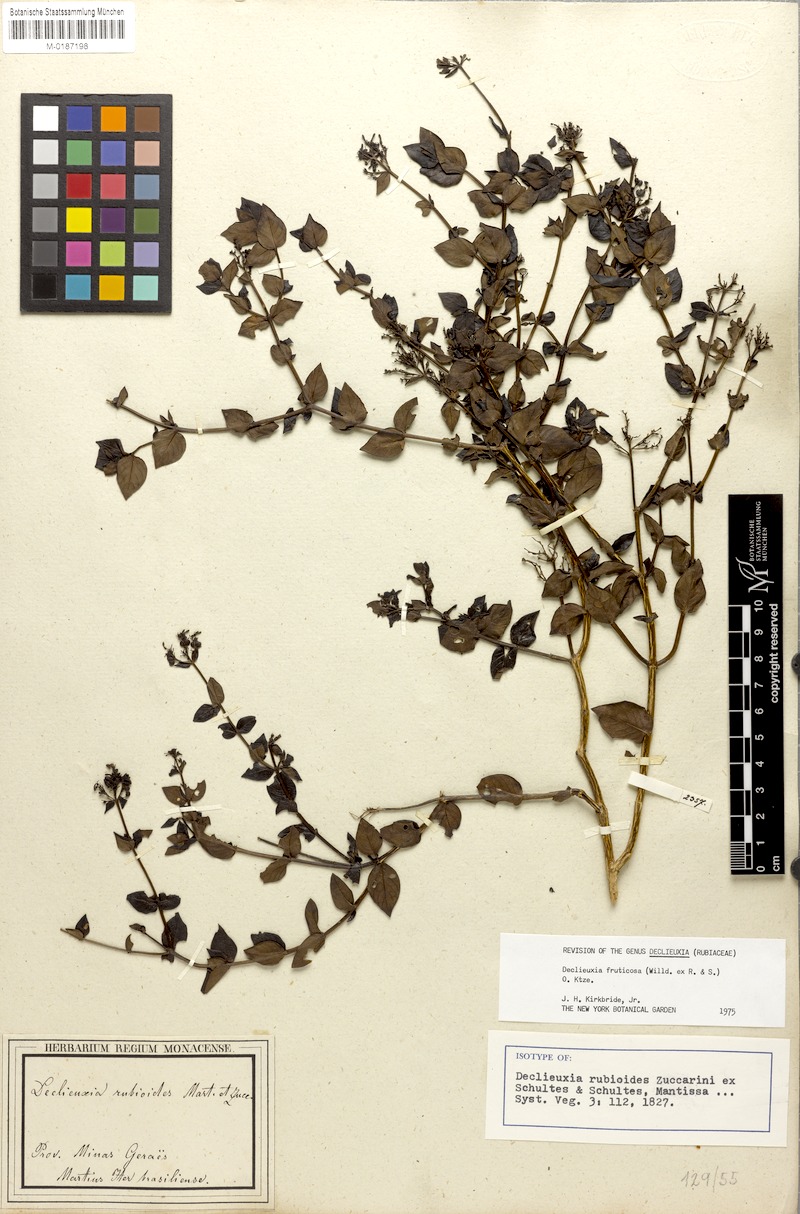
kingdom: Plantae
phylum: Tracheophyta
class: Magnoliopsida
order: Gentianales
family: Rubiaceae
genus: Declieuxia
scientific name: Declieuxia fruticosa
